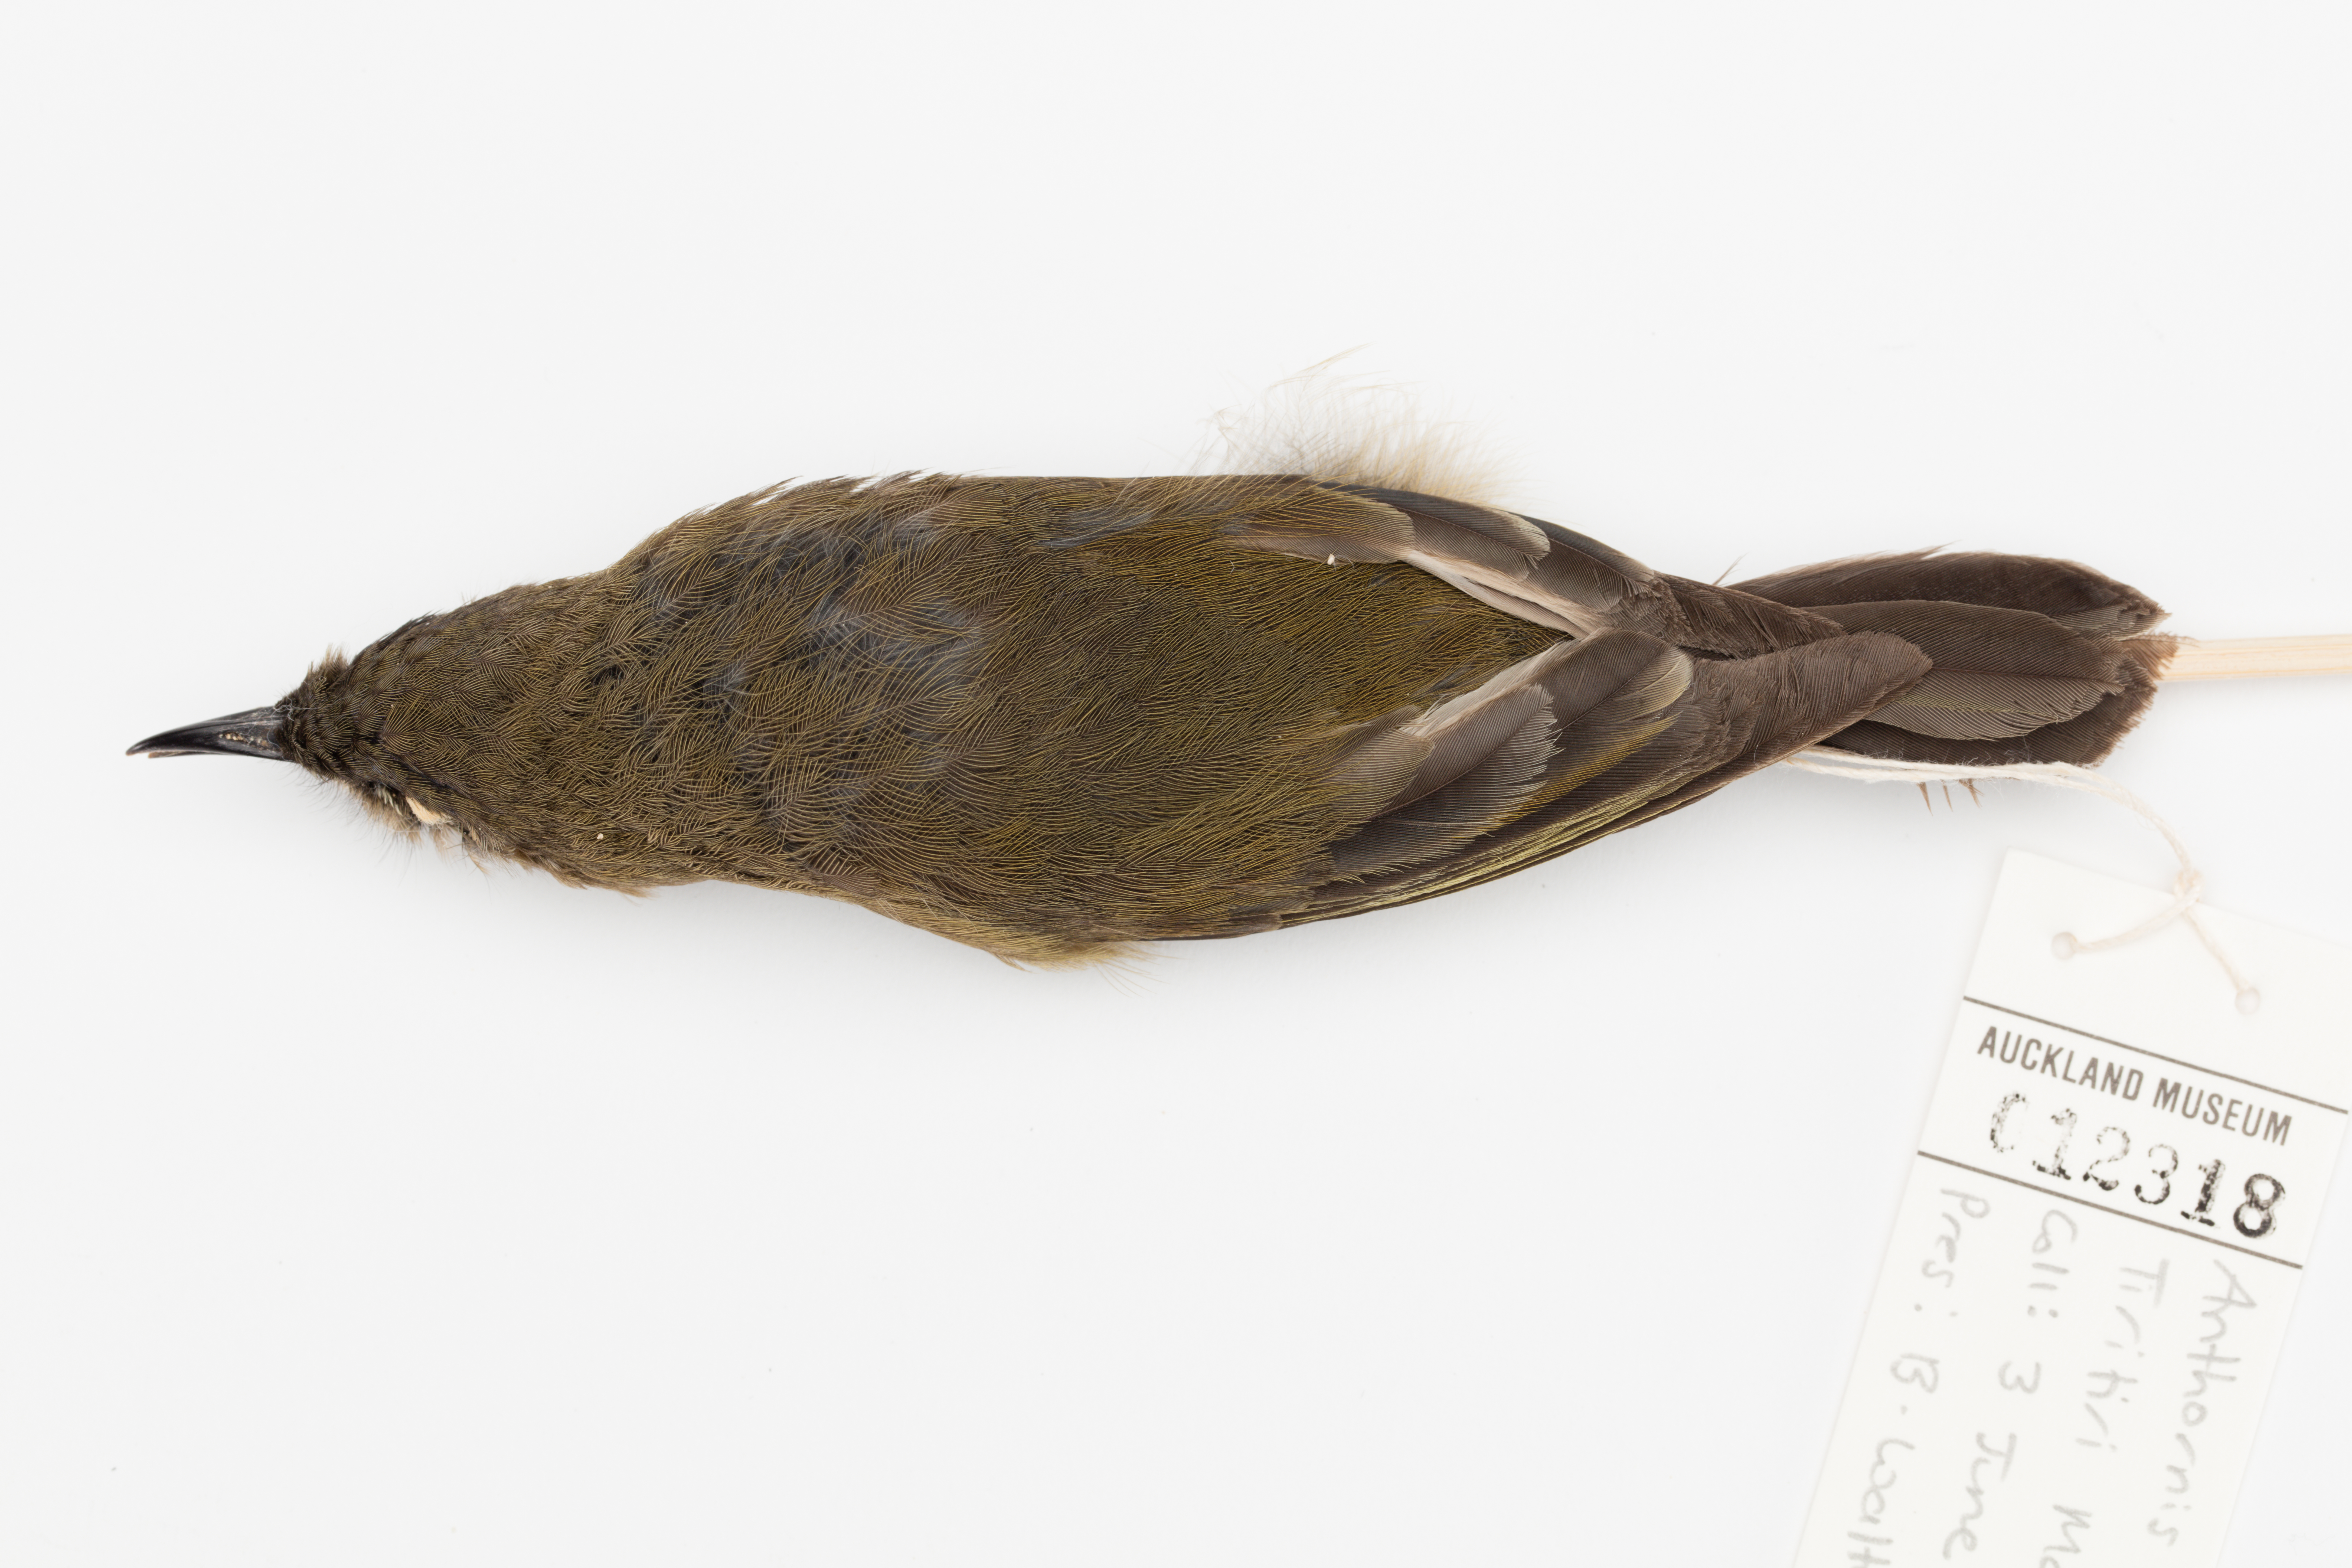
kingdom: Animalia
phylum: Chordata
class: Aves
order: Passeriformes
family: Meliphagidae
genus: Anthornis
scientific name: Anthornis melanura
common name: New zealand bellbird
